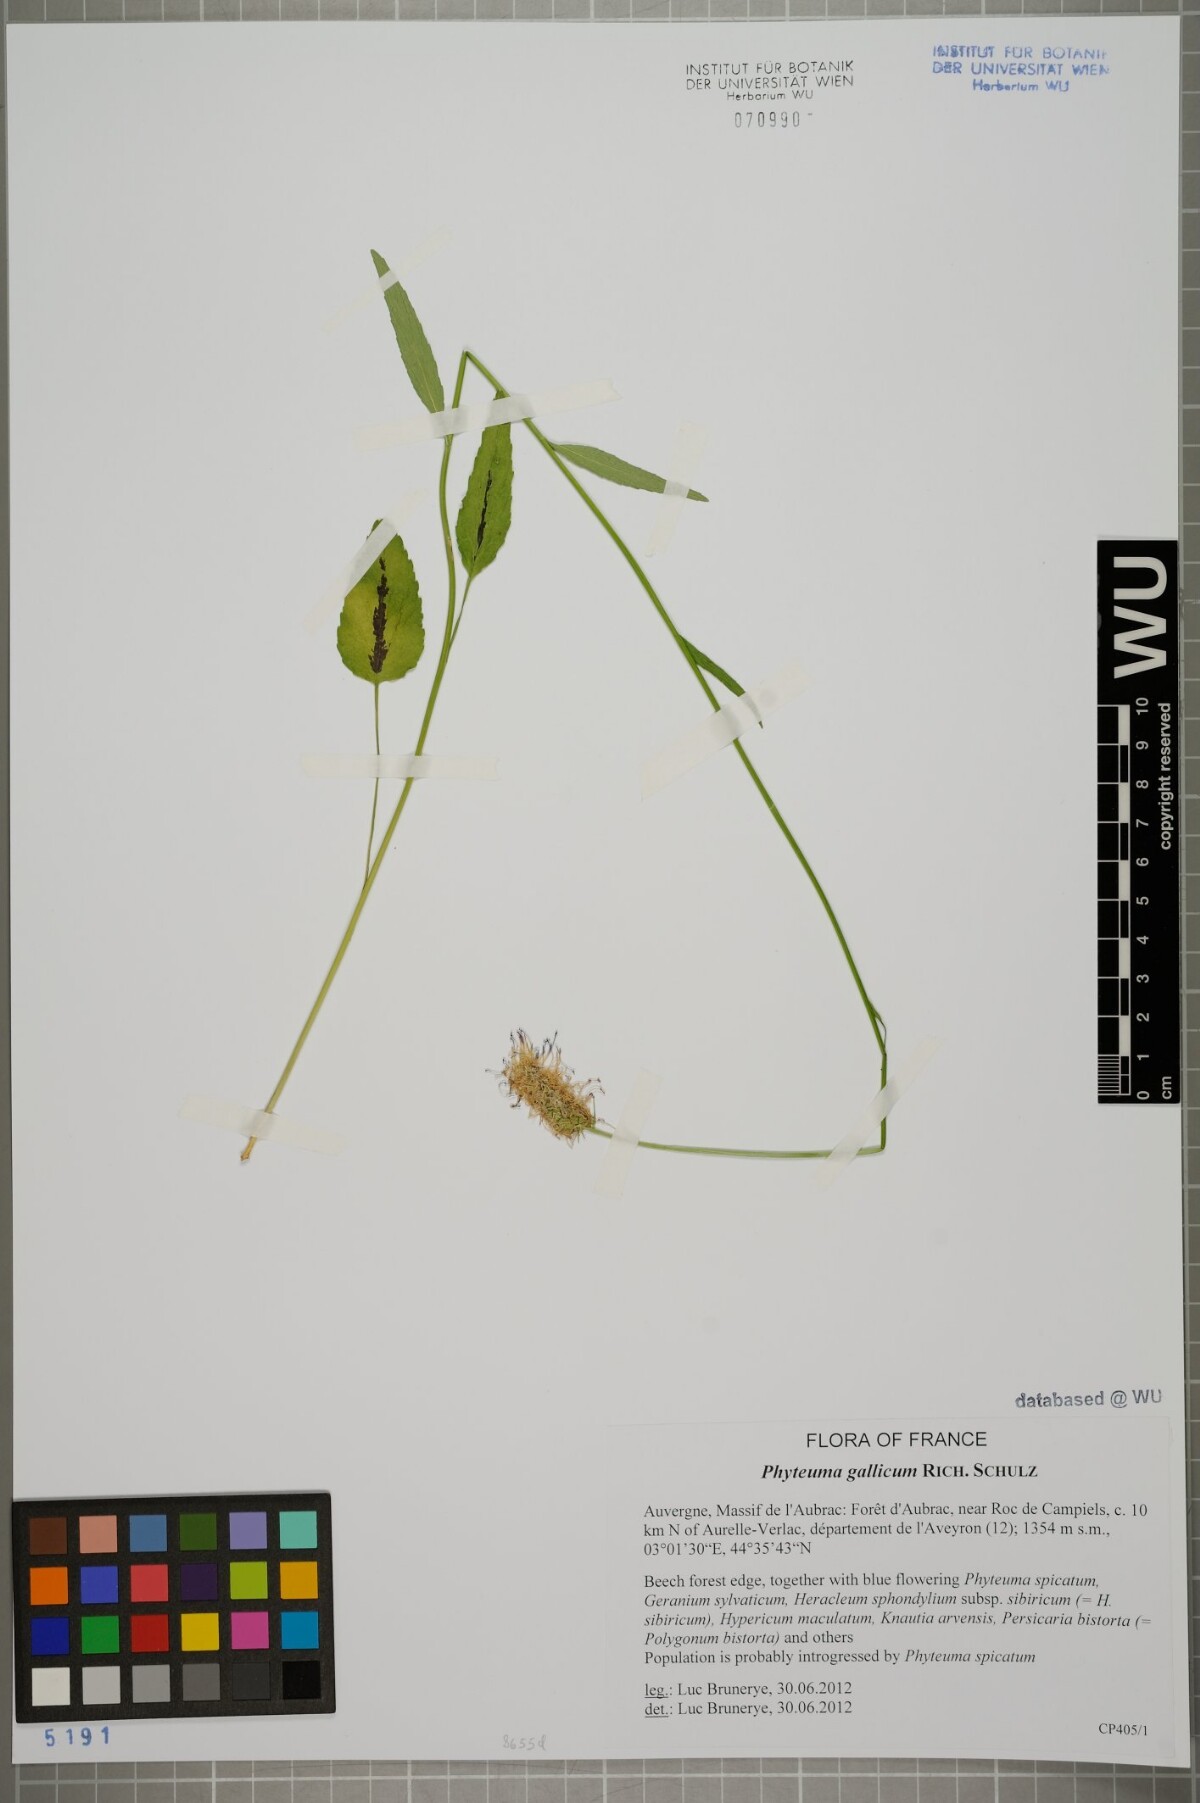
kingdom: Plantae
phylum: Tracheophyta
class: Magnoliopsida
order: Asterales
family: Campanulaceae
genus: Phyteuma
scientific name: Phyteuma gallicum
